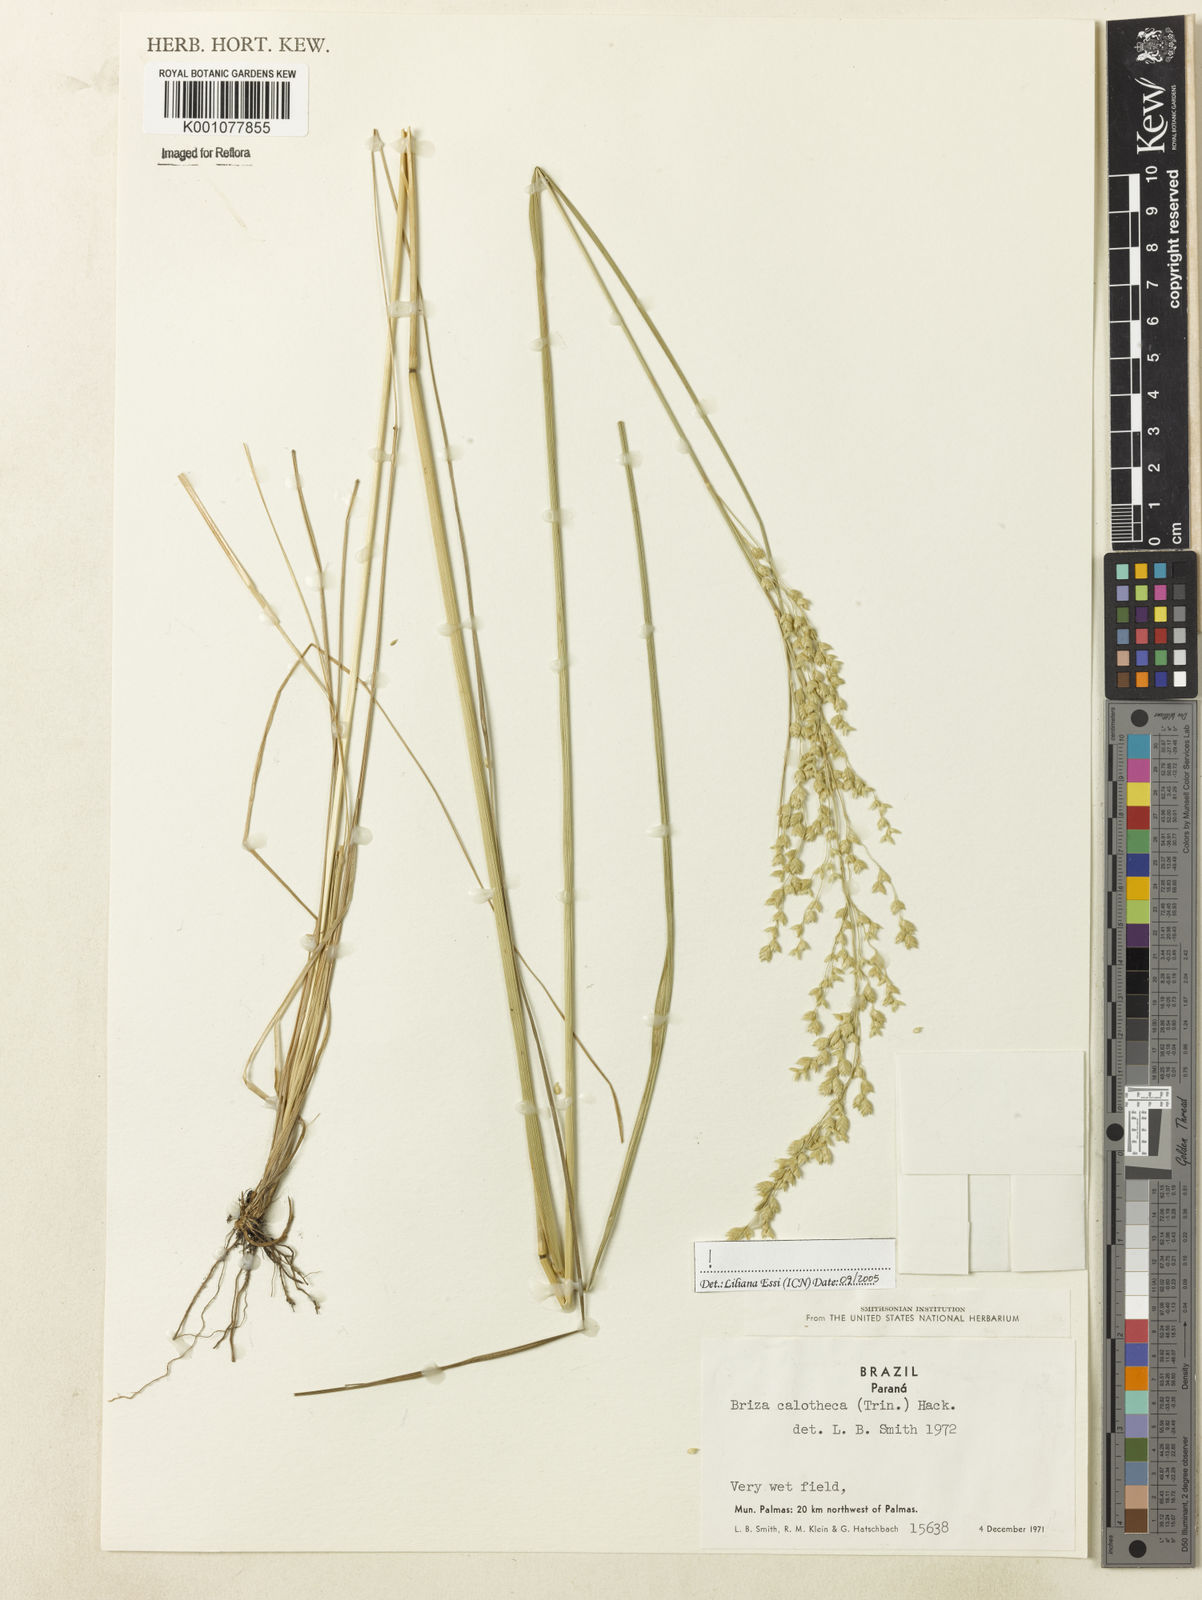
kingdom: Plantae
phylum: Tracheophyta
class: Liliopsida
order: Poales
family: Poaceae
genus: Poidium
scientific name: Poidium calotheca
